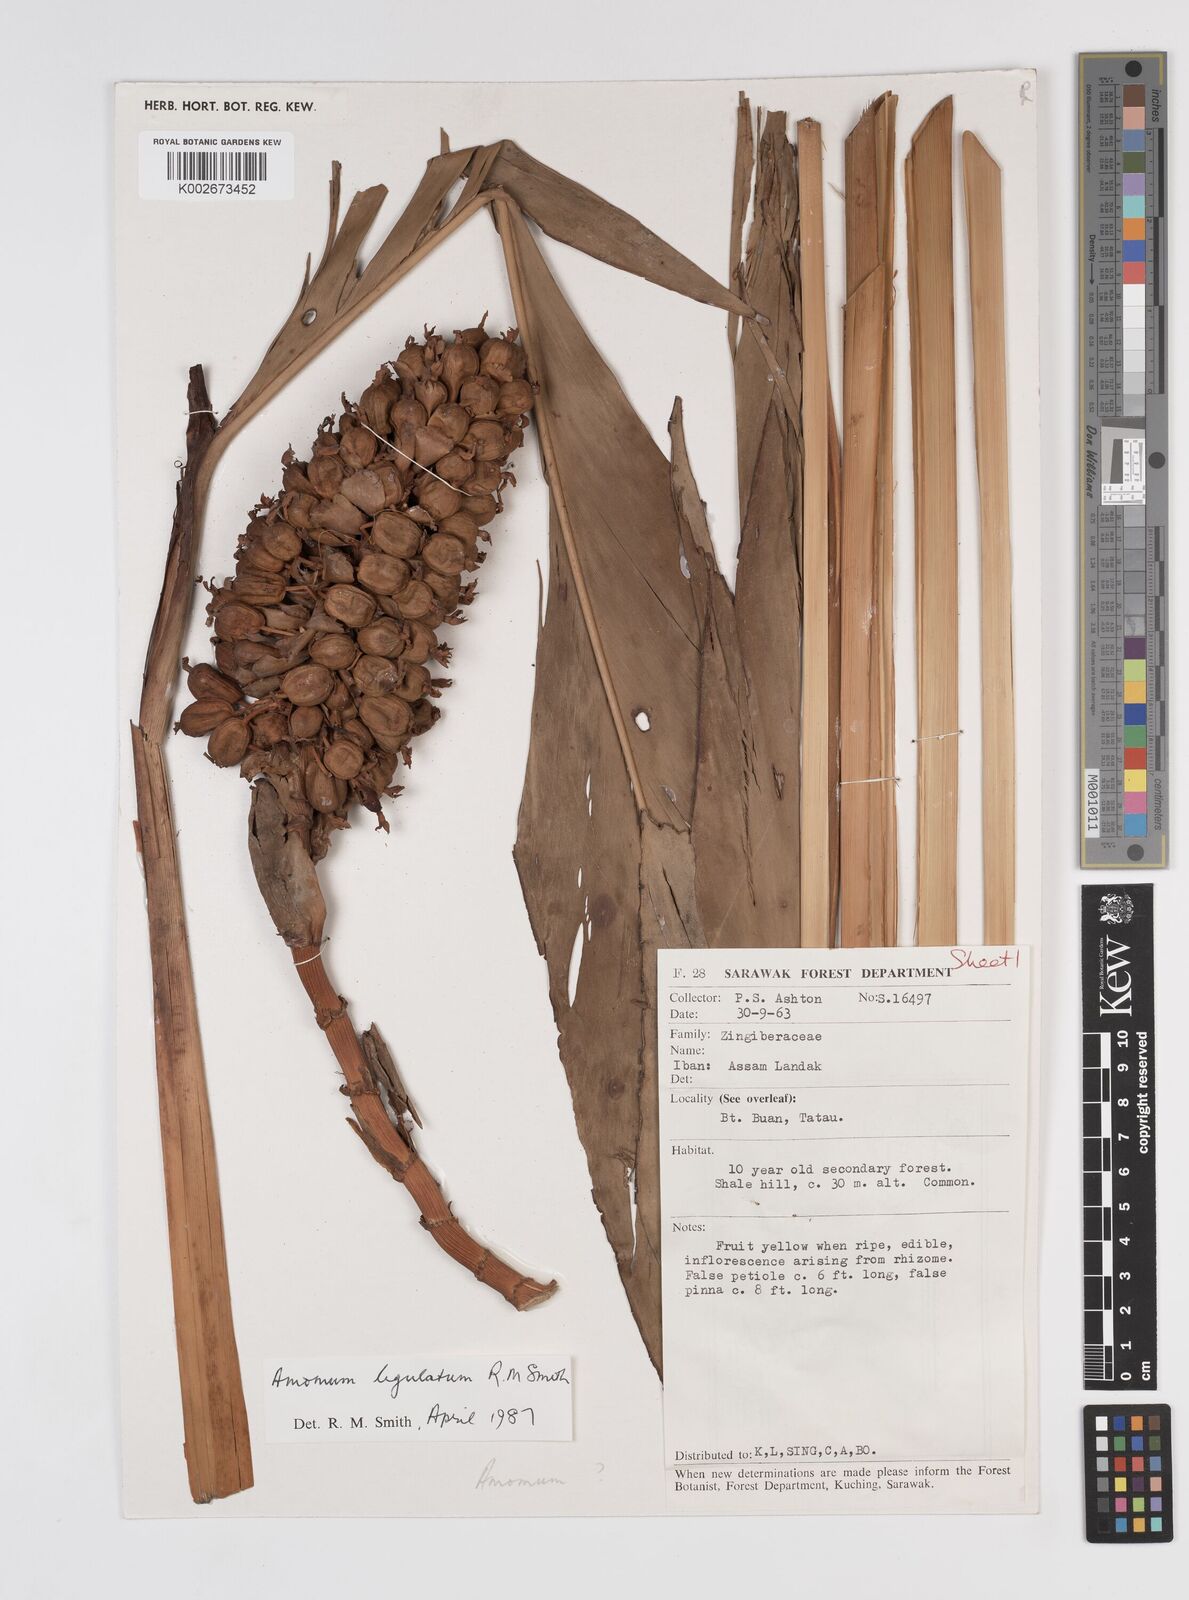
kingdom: Plantae
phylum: Tracheophyta
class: Liliopsida
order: Zingiberales
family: Zingiberaceae
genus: Sulettaria
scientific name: Sulettaria ligulata
